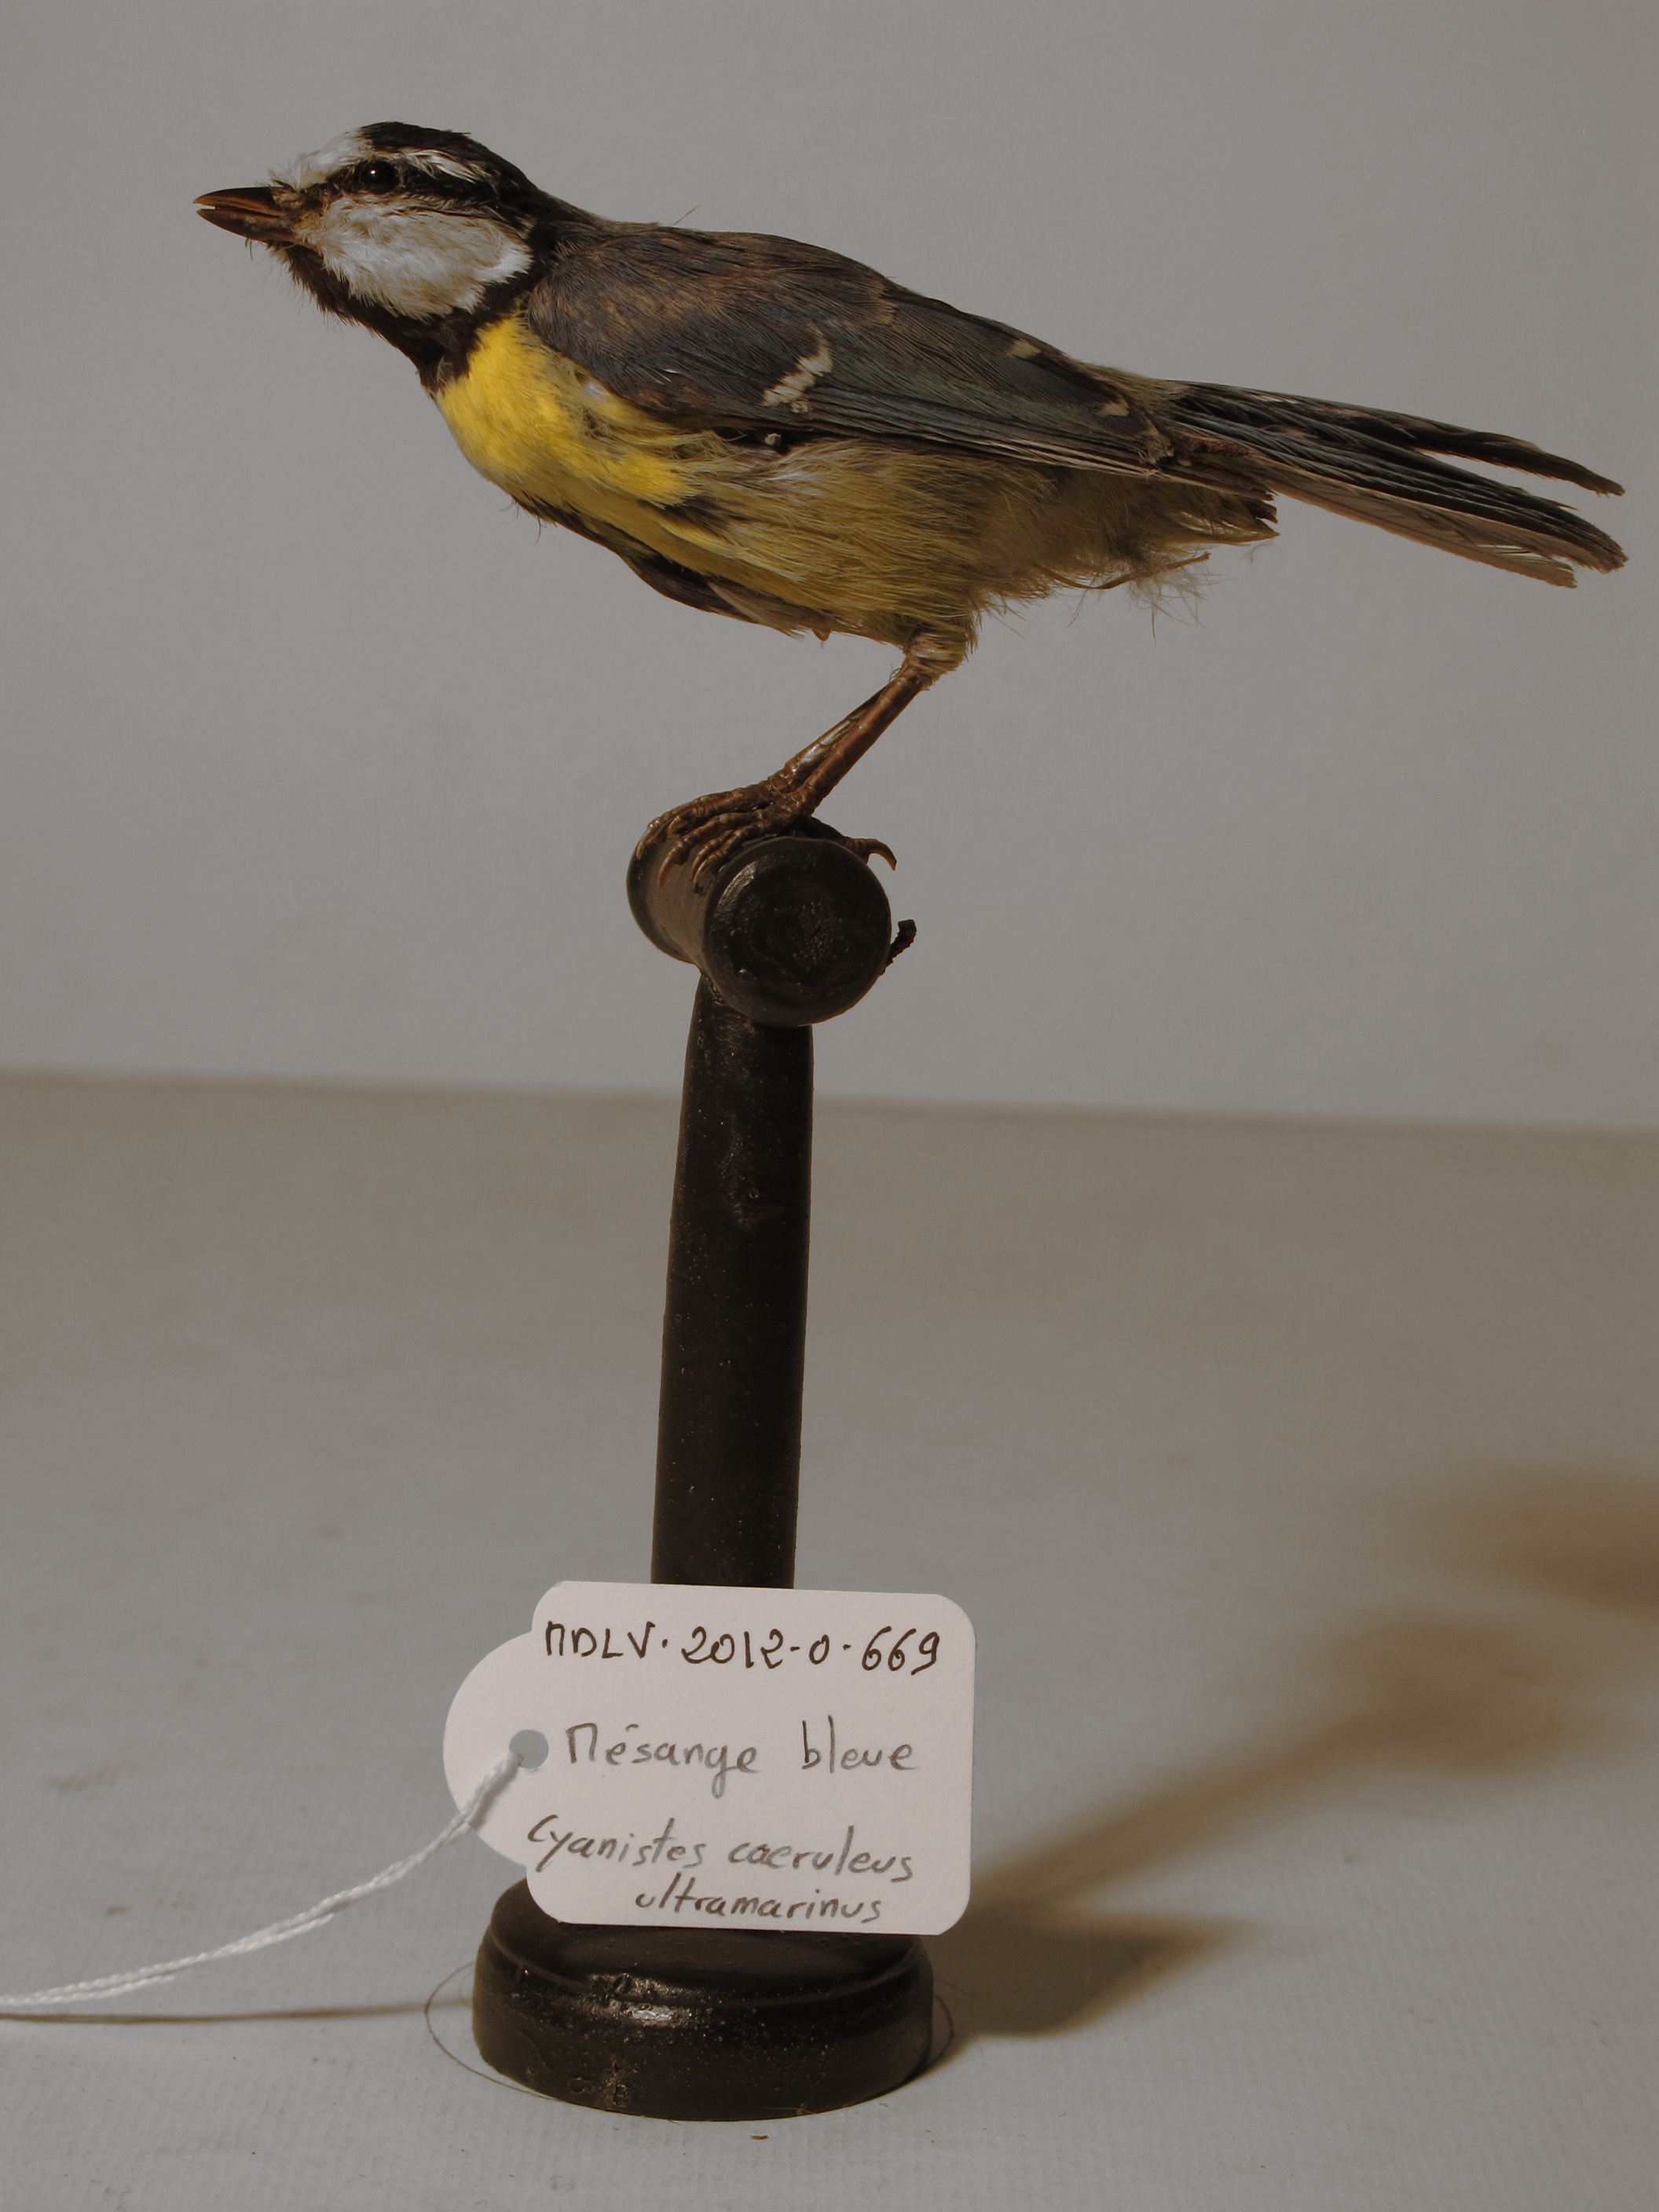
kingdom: Animalia
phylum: Chordata
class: Aves
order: Passeriformes
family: Paridae
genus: Cyanistes
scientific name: Cyanistes caeruleus
